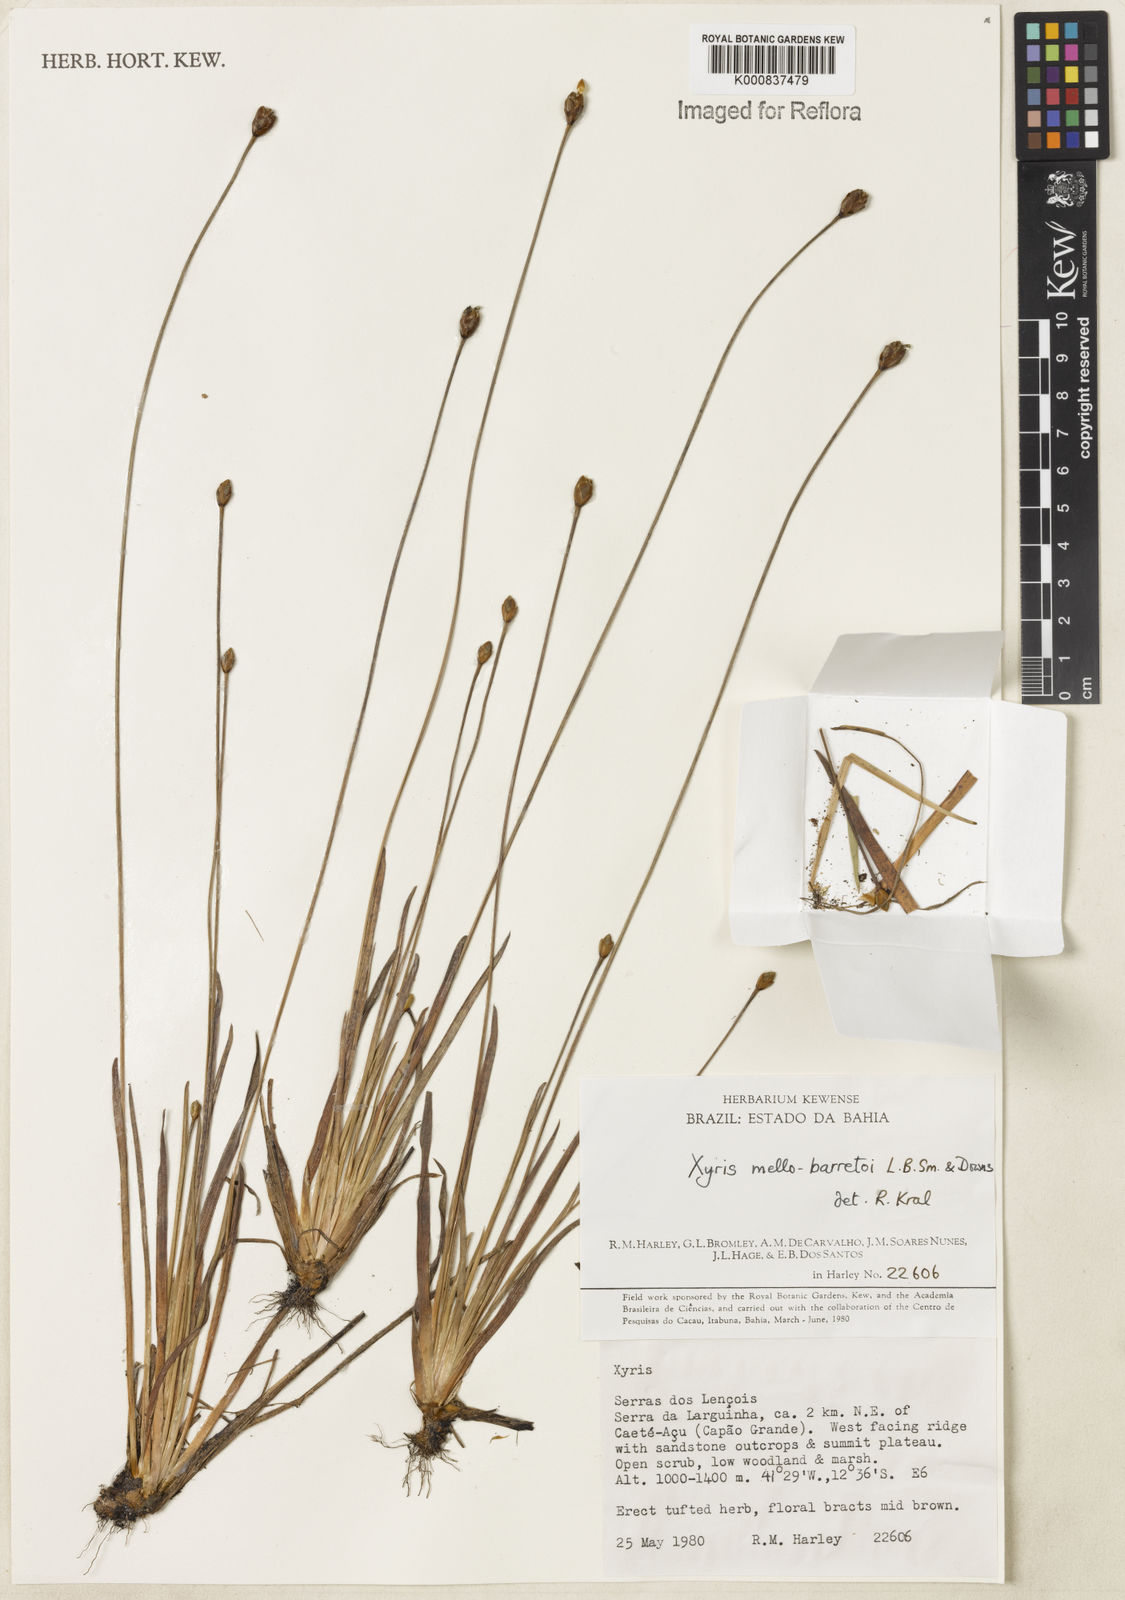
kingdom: Plantae
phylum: Tracheophyta
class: Liliopsida
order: Poales
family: Xyridaceae
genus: Xyris
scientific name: Xyris mello-barretoi
